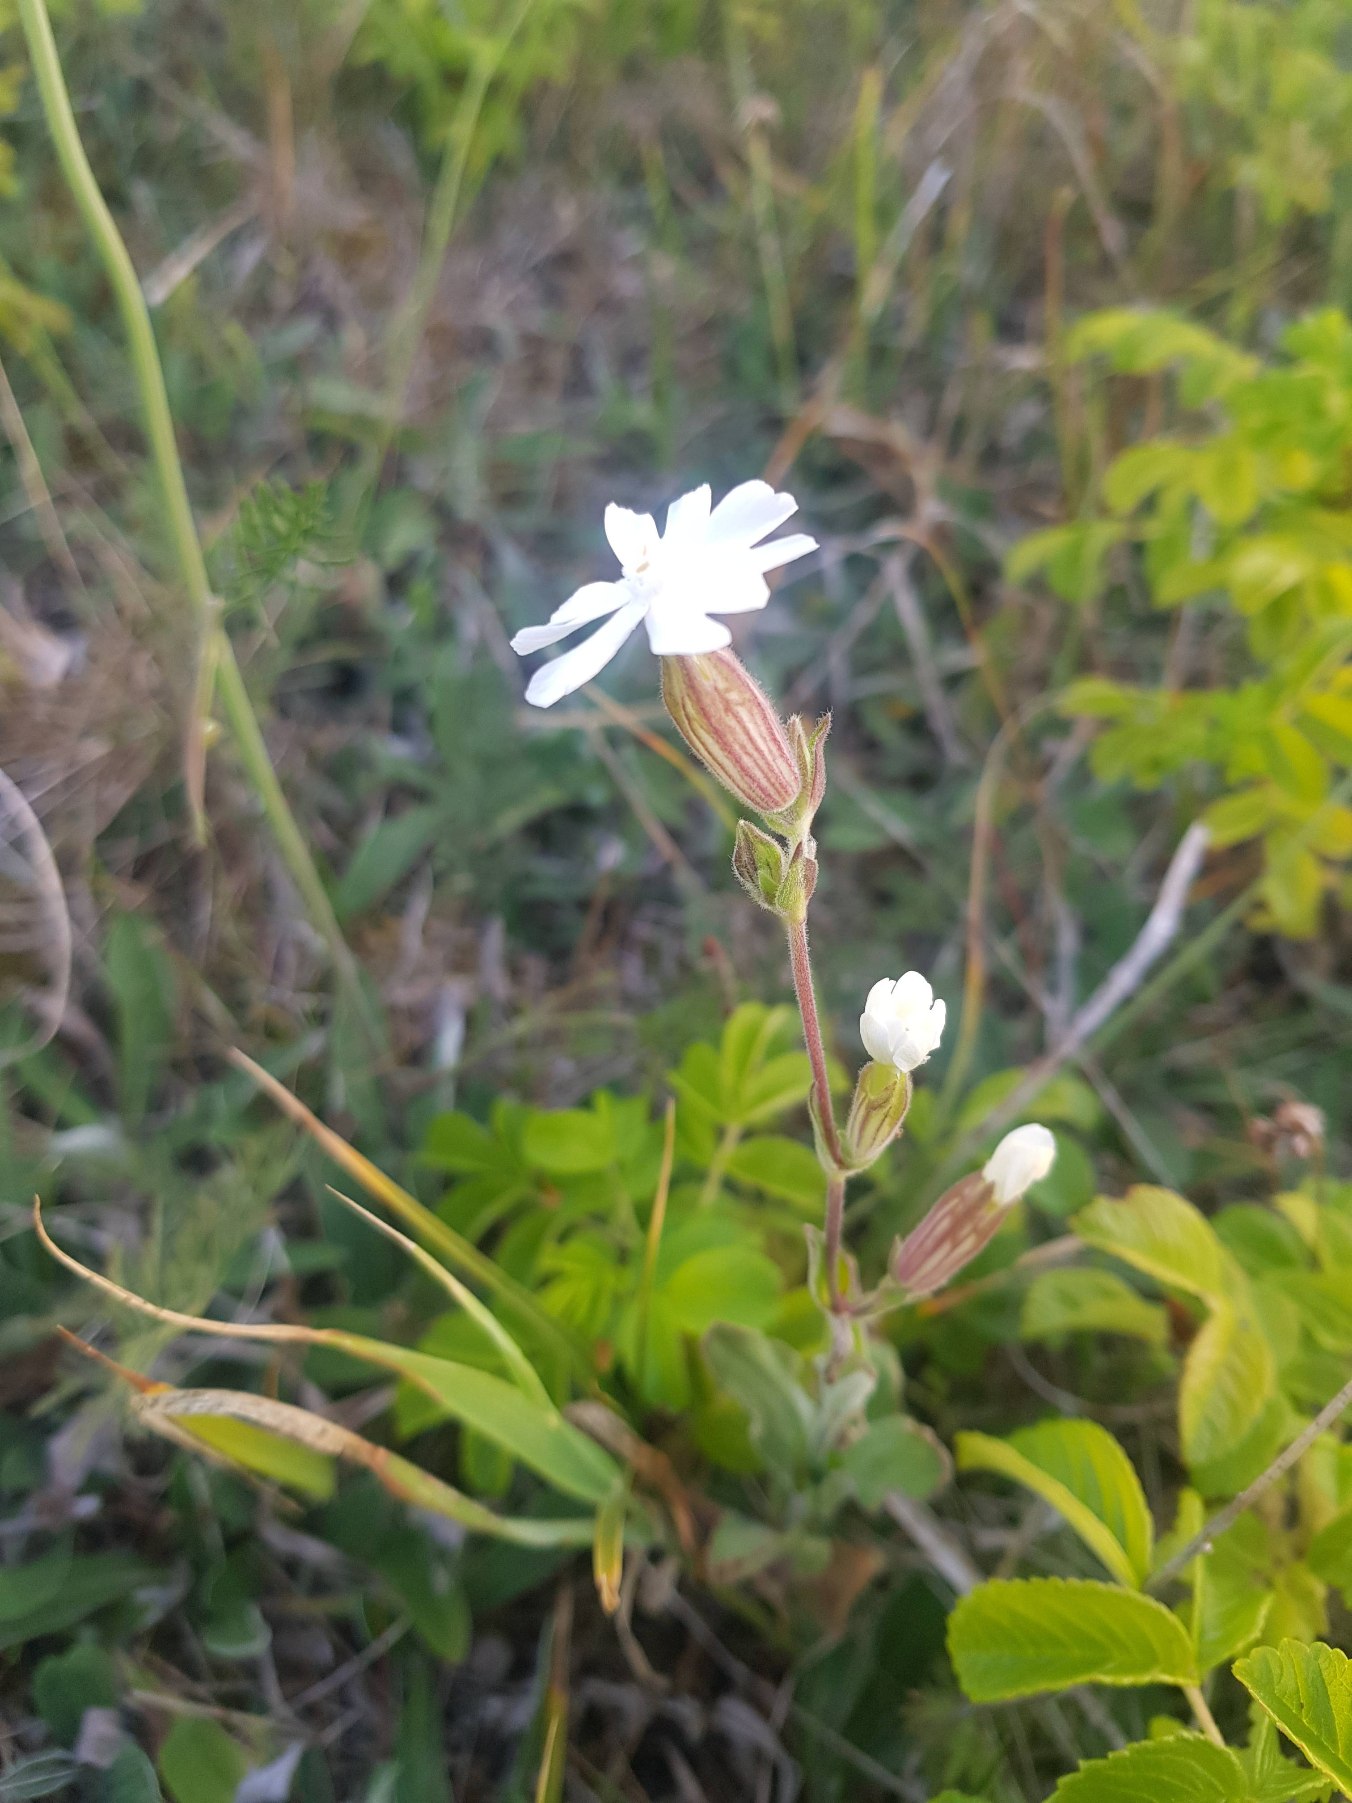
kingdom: Plantae
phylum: Tracheophyta
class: Magnoliopsida
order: Caryophyllales
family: Caryophyllaceae
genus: Silene
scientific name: Silene latifolia
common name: Aftenpragtstjerne
